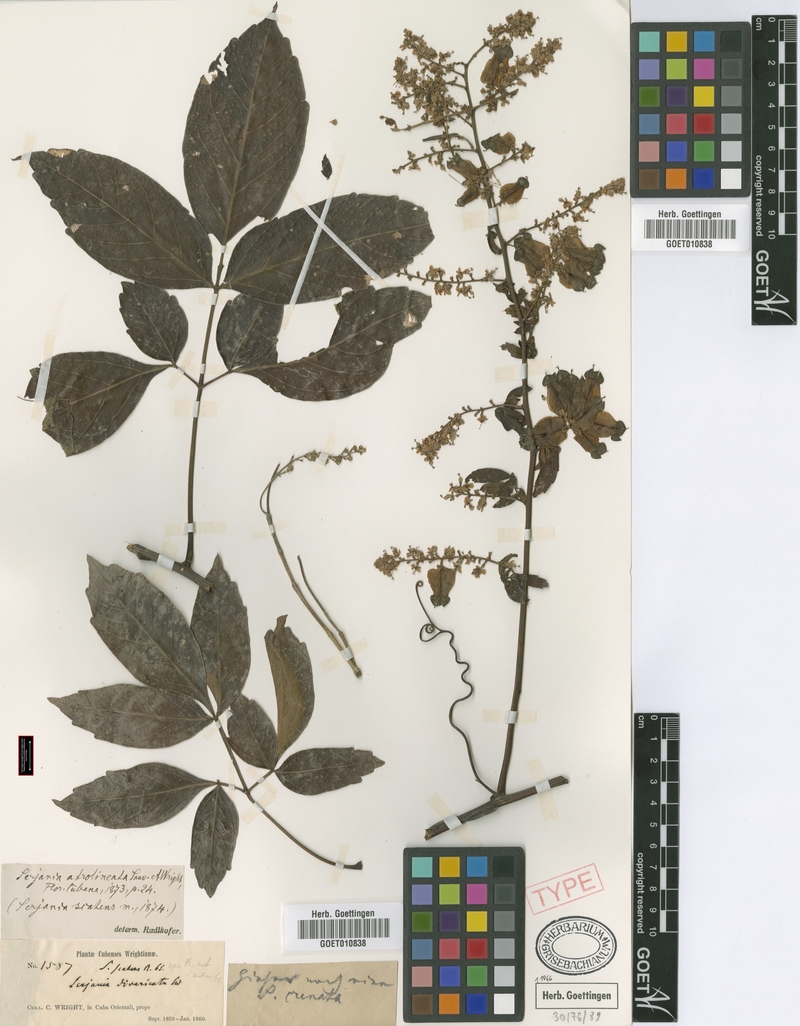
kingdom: Plantae
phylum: Tracheophyta
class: Magnoliopsida
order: Sapindales
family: Sapindaceae
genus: Serjania
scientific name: Serjania atrolineata
